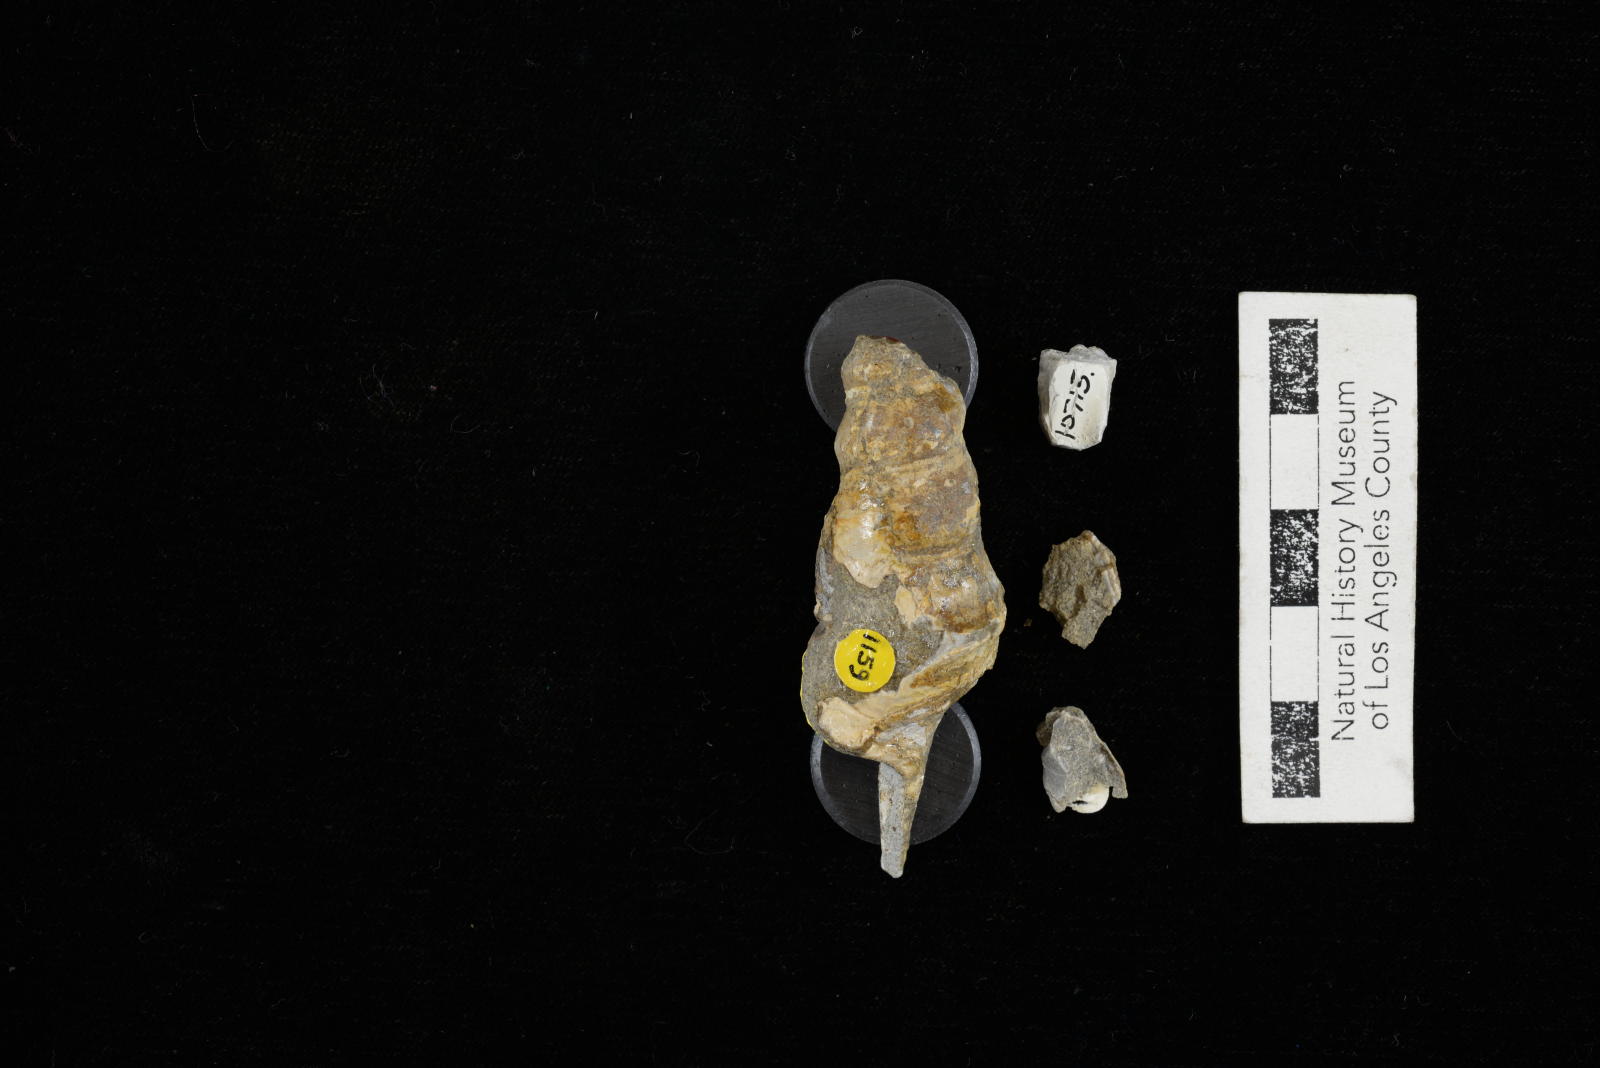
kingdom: Animalia
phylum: Mollusca
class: Gastropoda
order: Littorinimorpha
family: Aporrhaidae
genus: Anchura
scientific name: Anchura phaba
